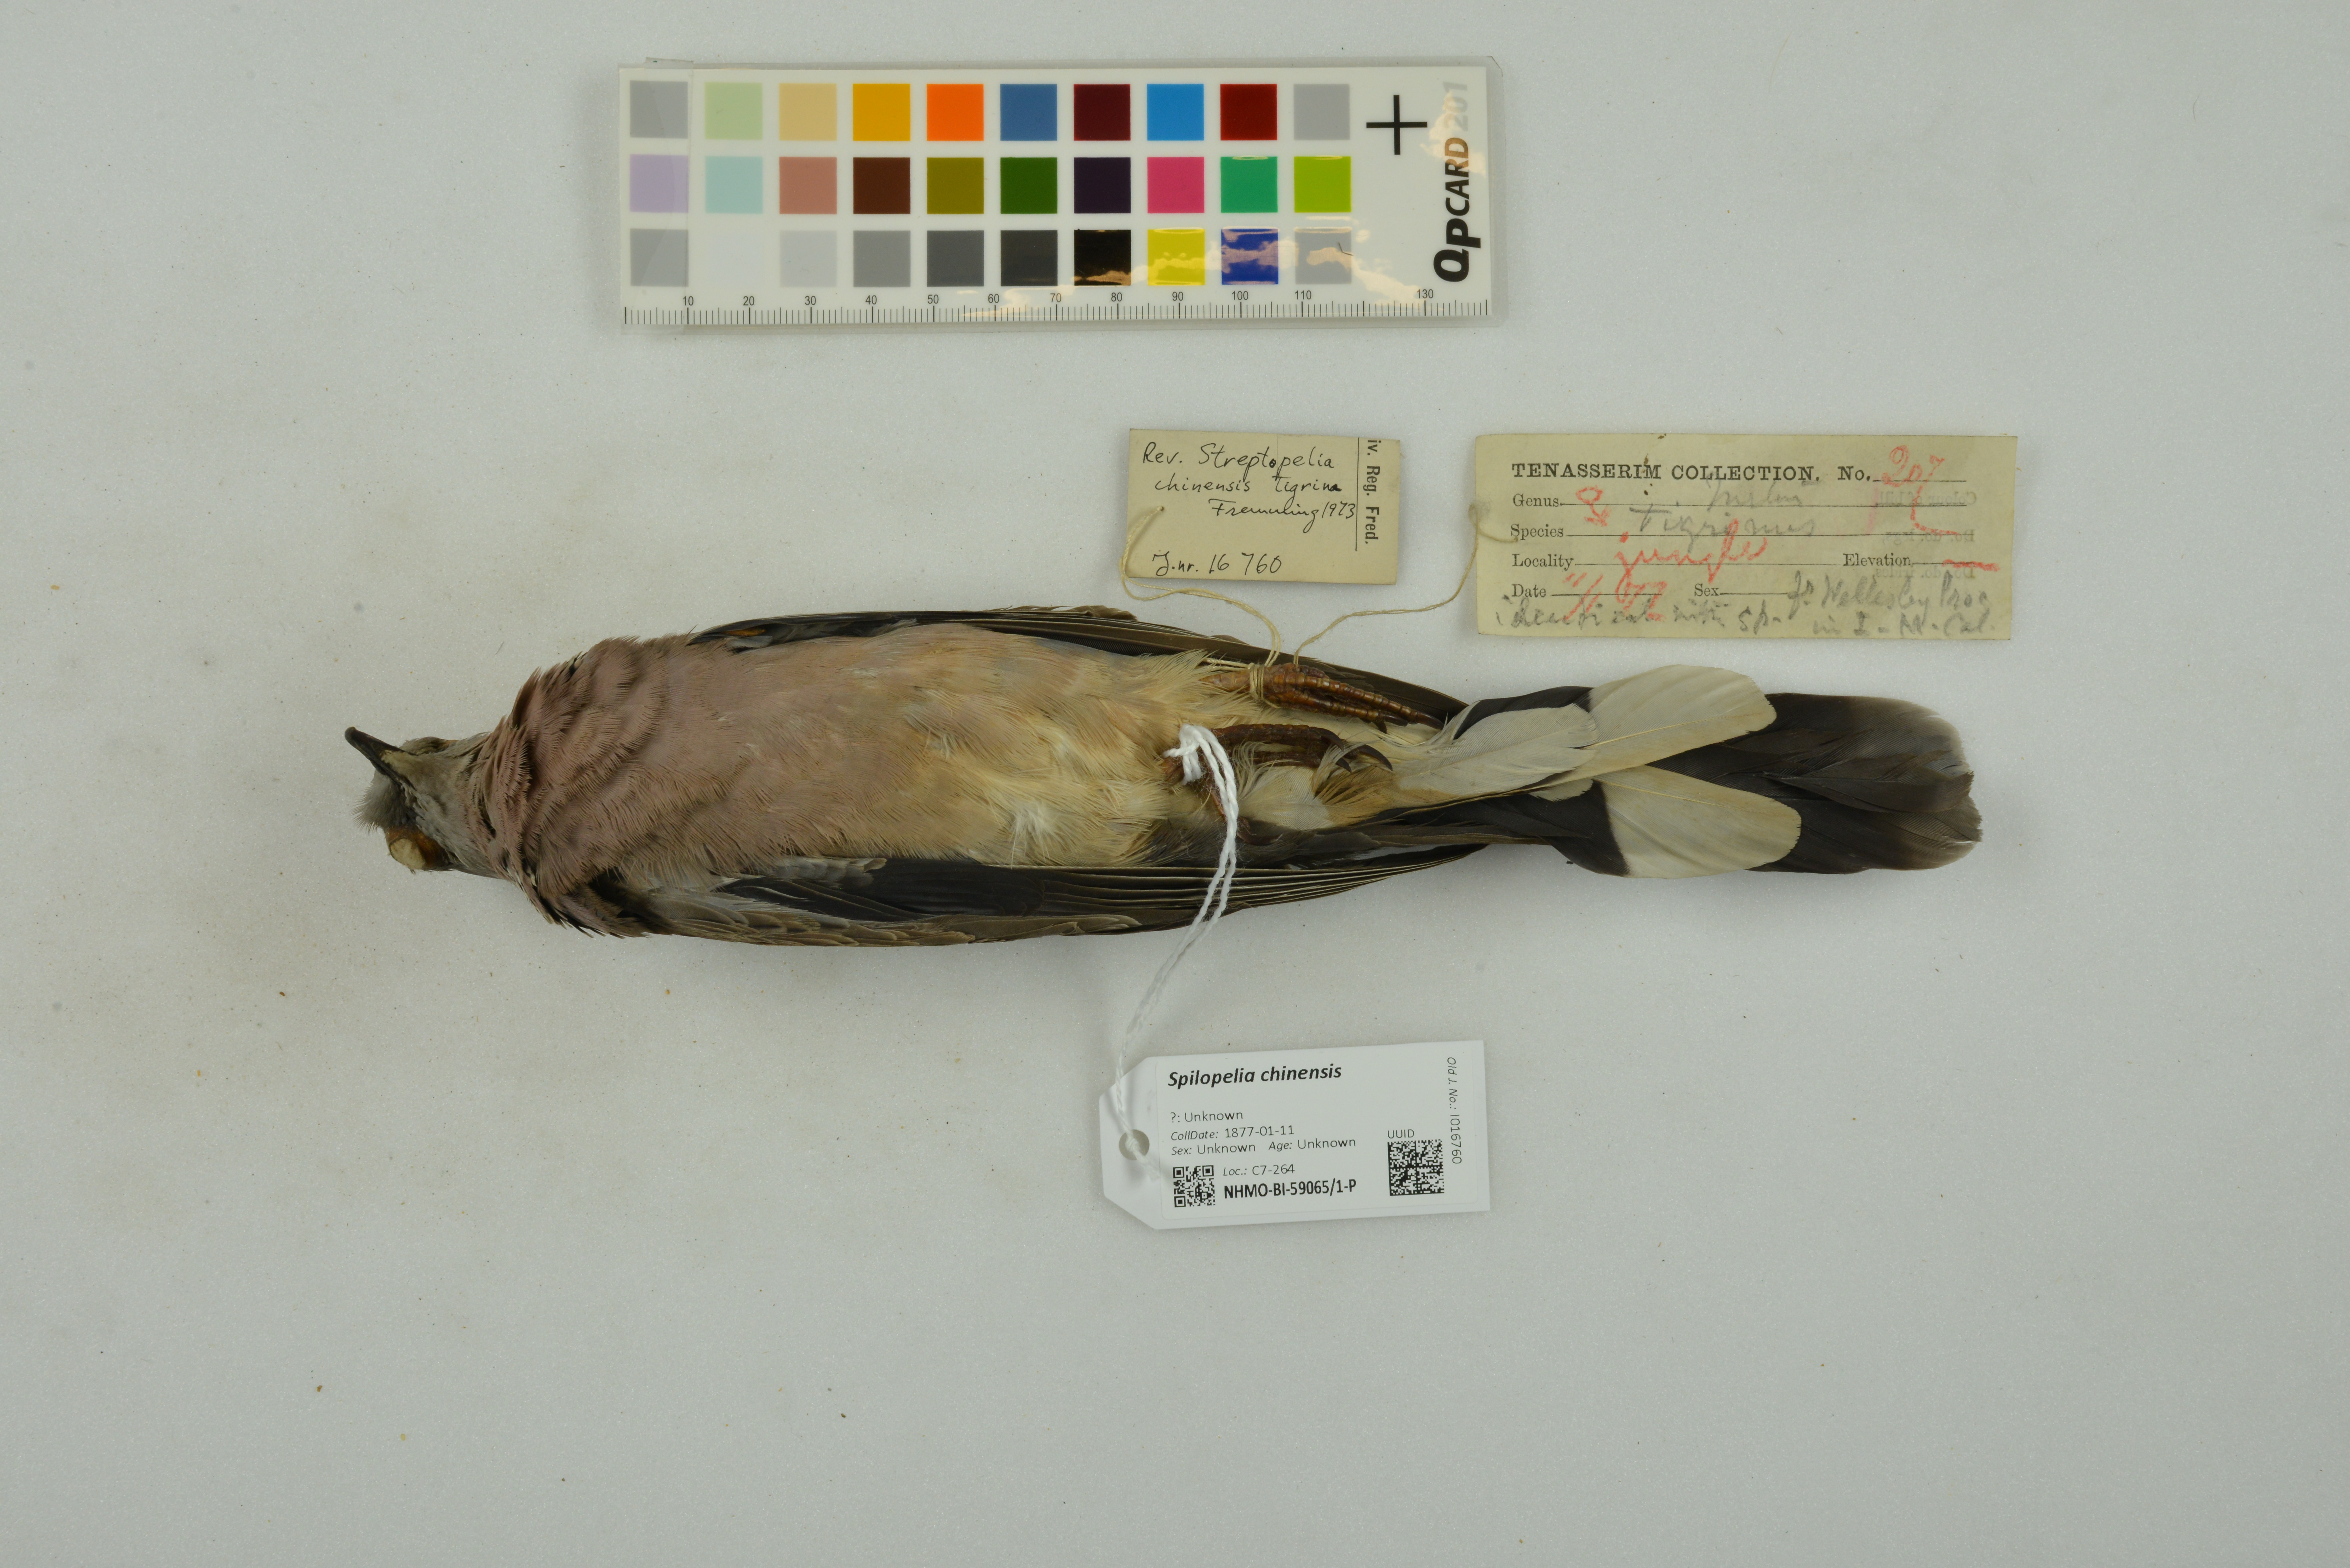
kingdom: Animalia
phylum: Chordata
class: Aves
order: Columbiformes
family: Columbidae
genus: Spilopelia
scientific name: Spilopelia chinensis
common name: Spotted dove
